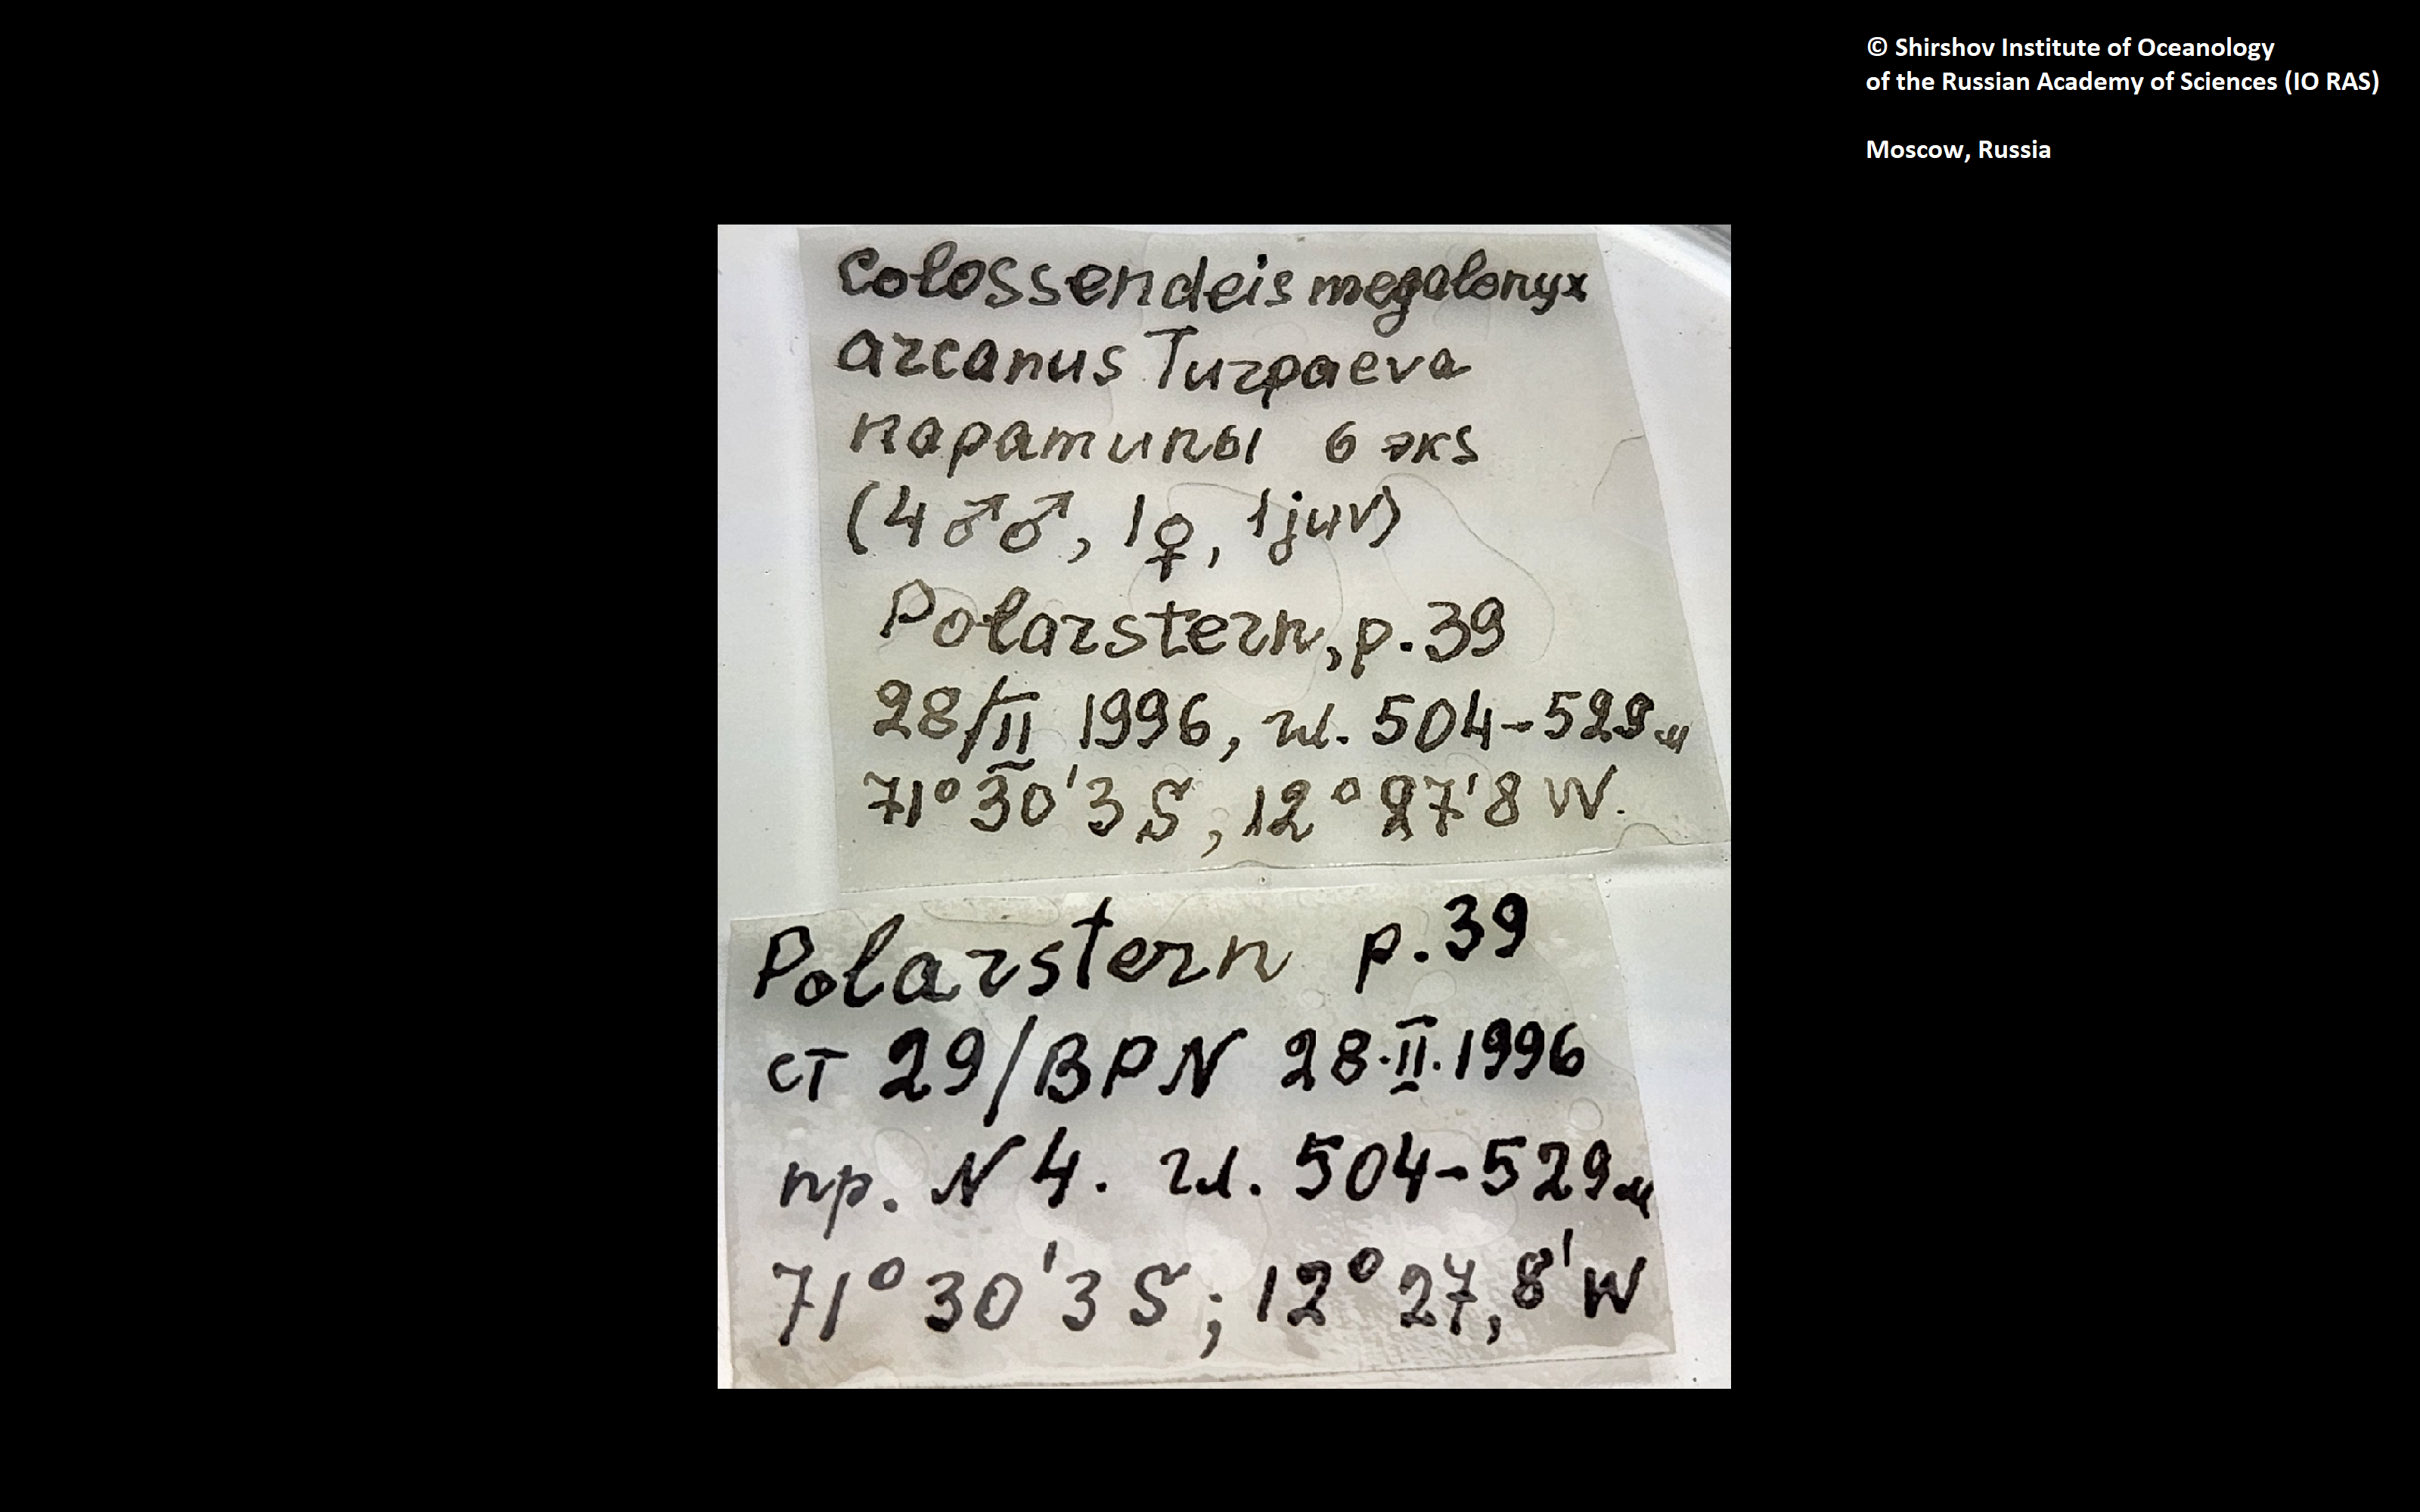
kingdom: Animalia
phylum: Arthropoda
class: Pycnogonida
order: Pantopoda
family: Colossendeidae
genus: Colossendeis
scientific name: Colossendeis megalonyx
